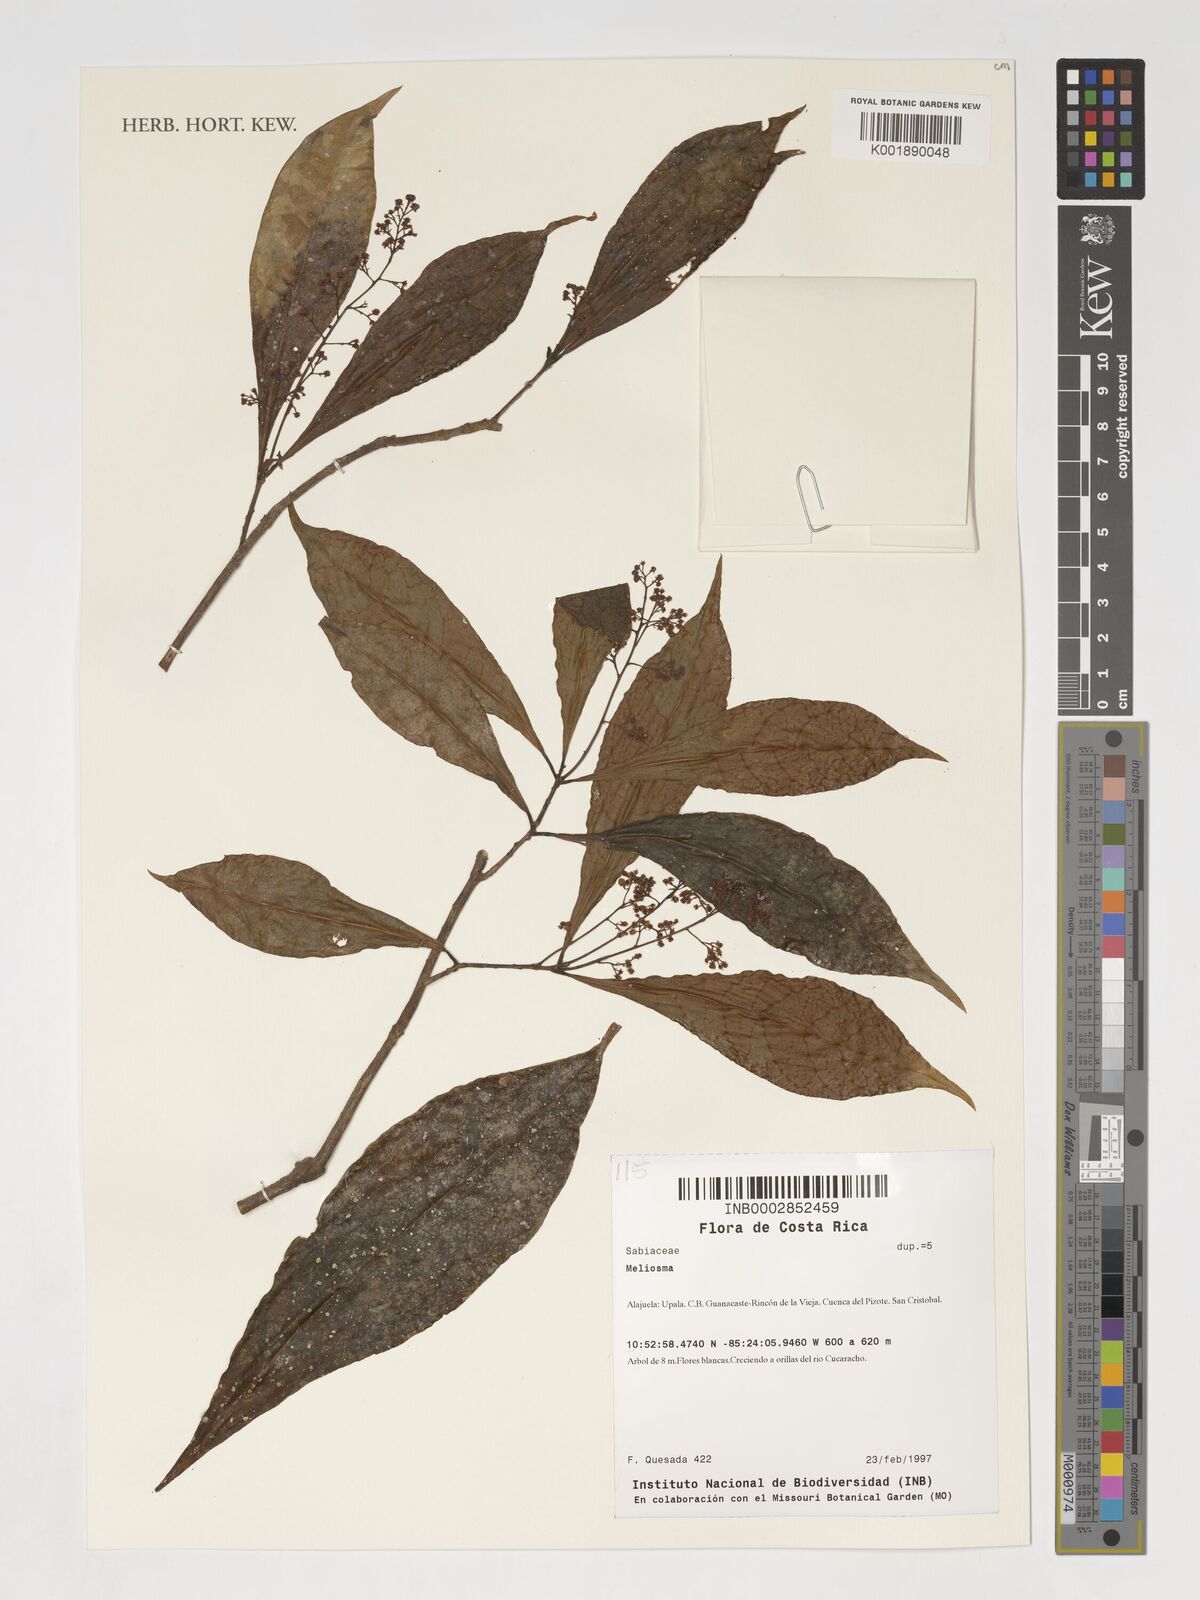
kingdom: Plantae
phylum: Tracheophyta
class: Magnoliopsida
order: Proteales
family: Sabiaceae
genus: Meliosma
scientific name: Meliosma
